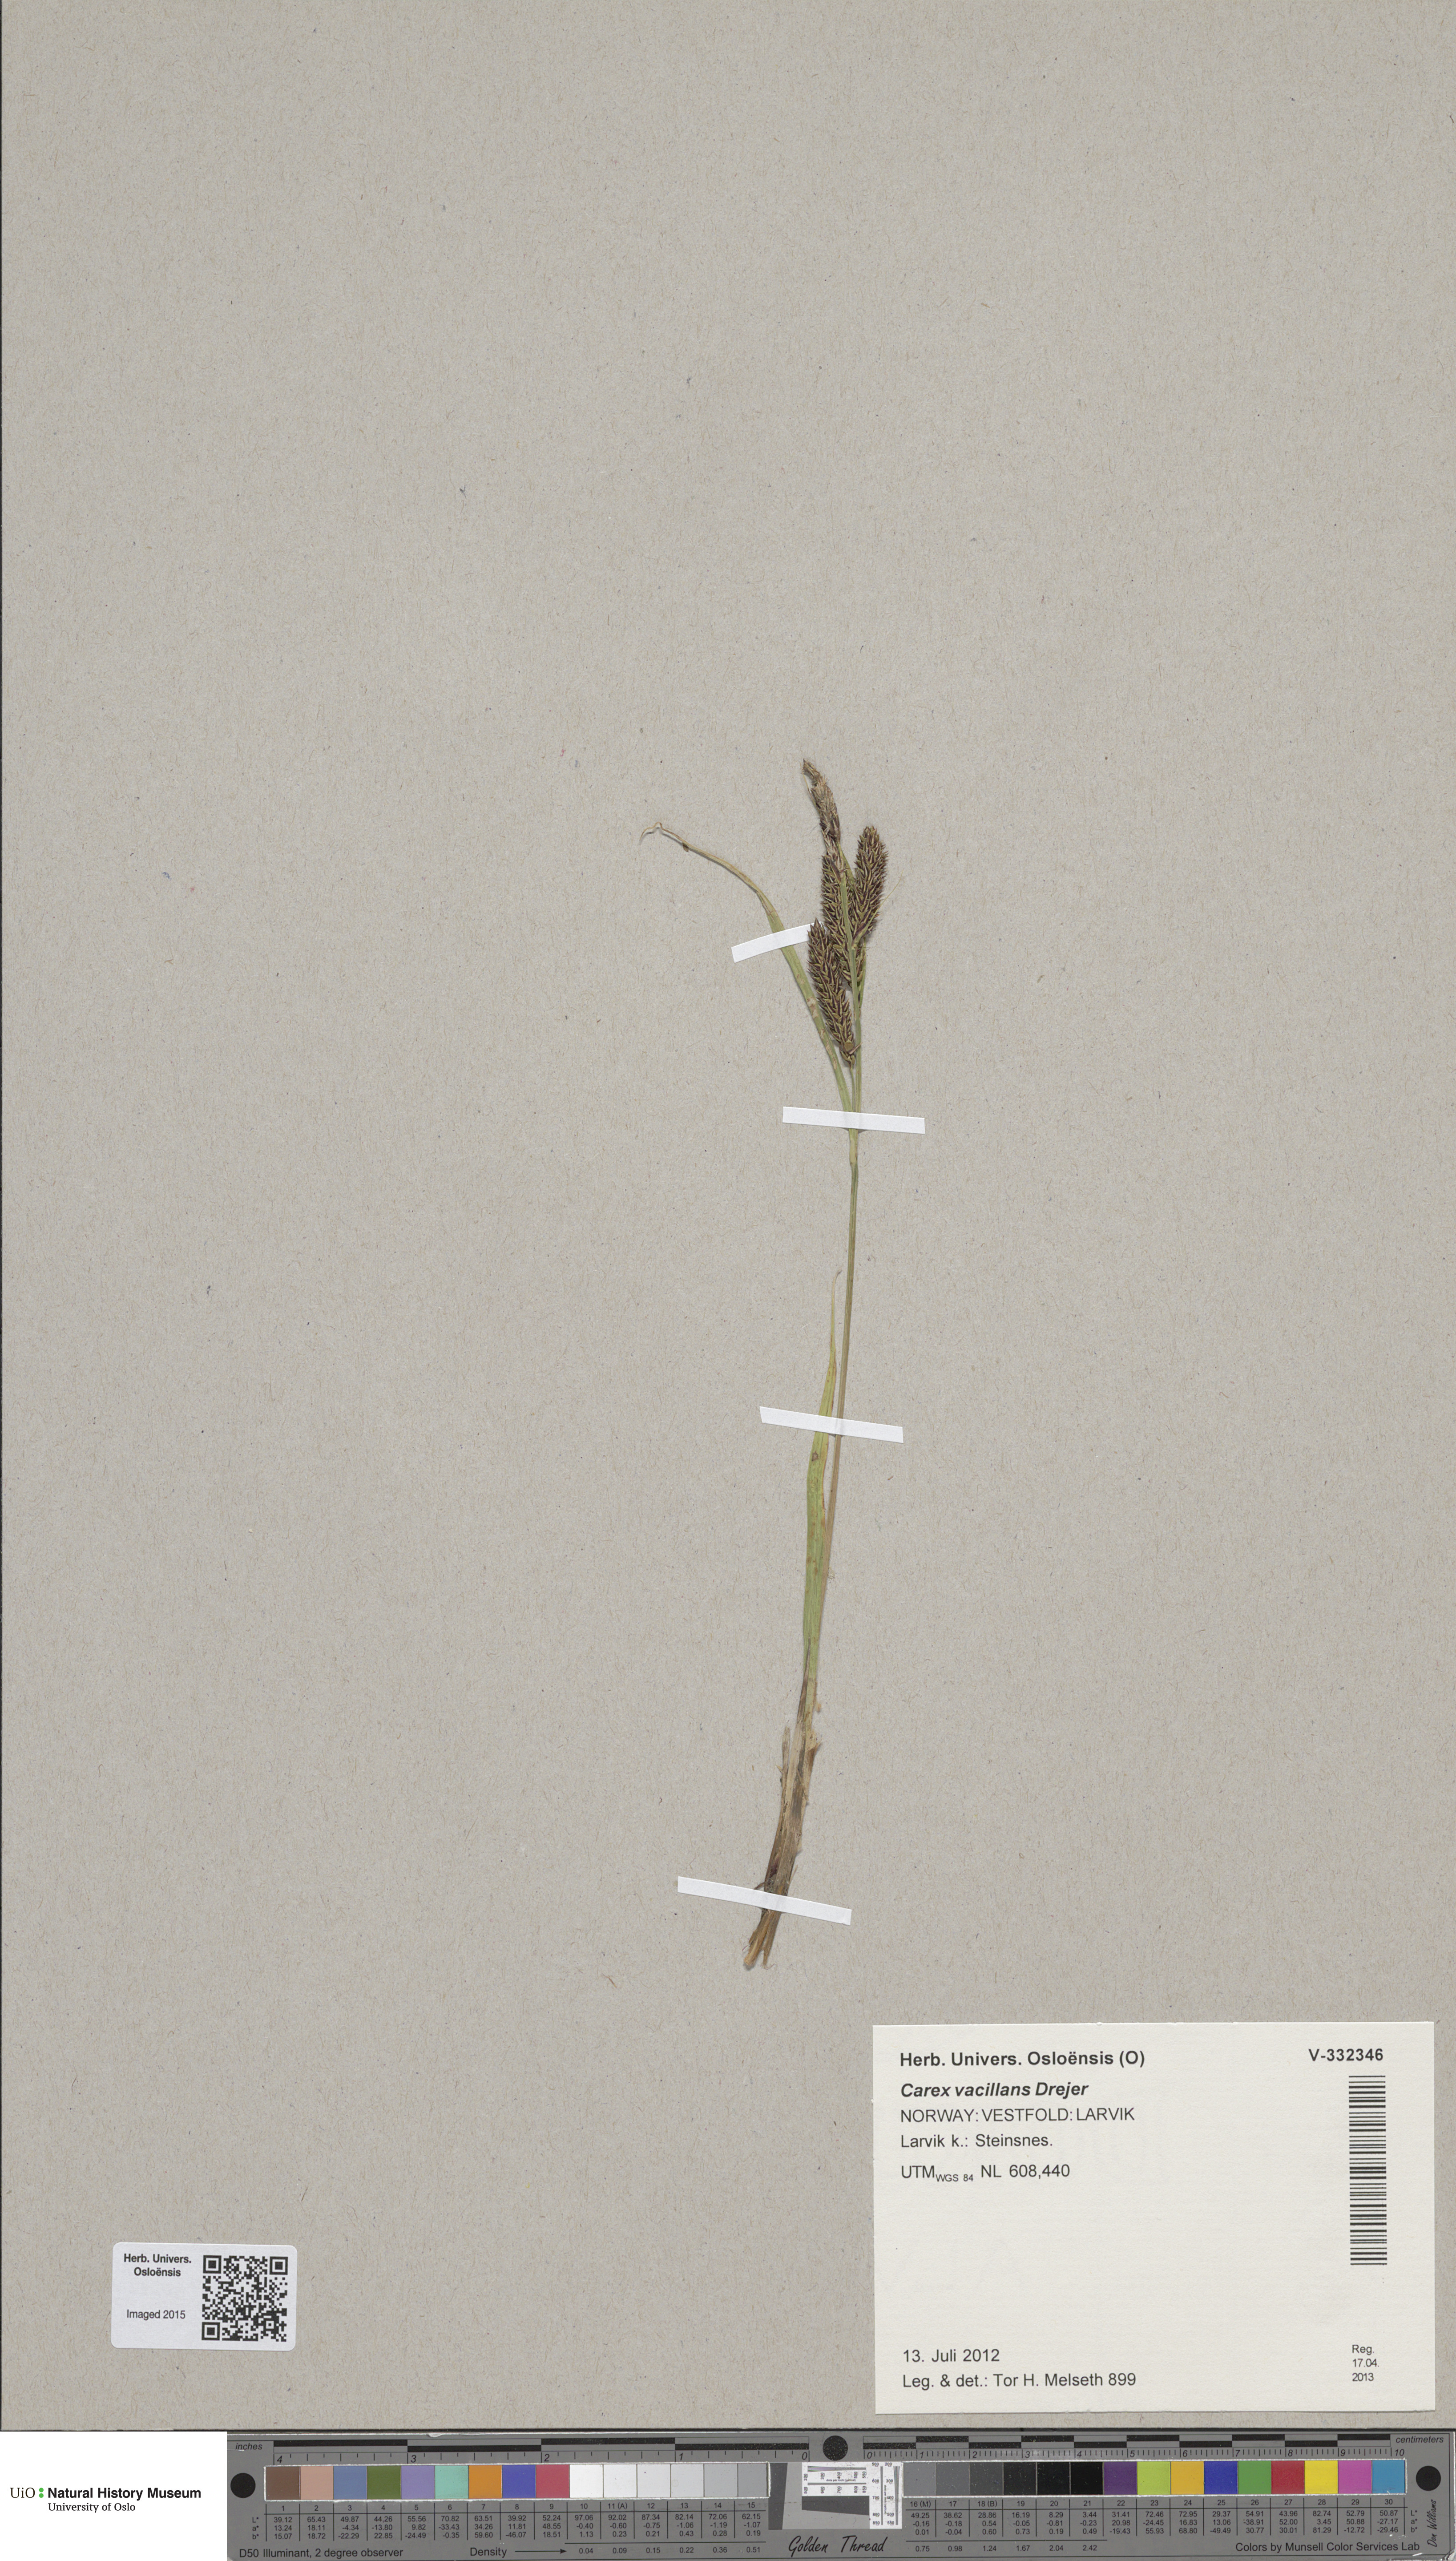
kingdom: Plantae
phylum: Tracheophyta
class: Liliopsida
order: Poales
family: Cyperaceae
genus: Carex
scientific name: Carex vacillans
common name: Sedge
